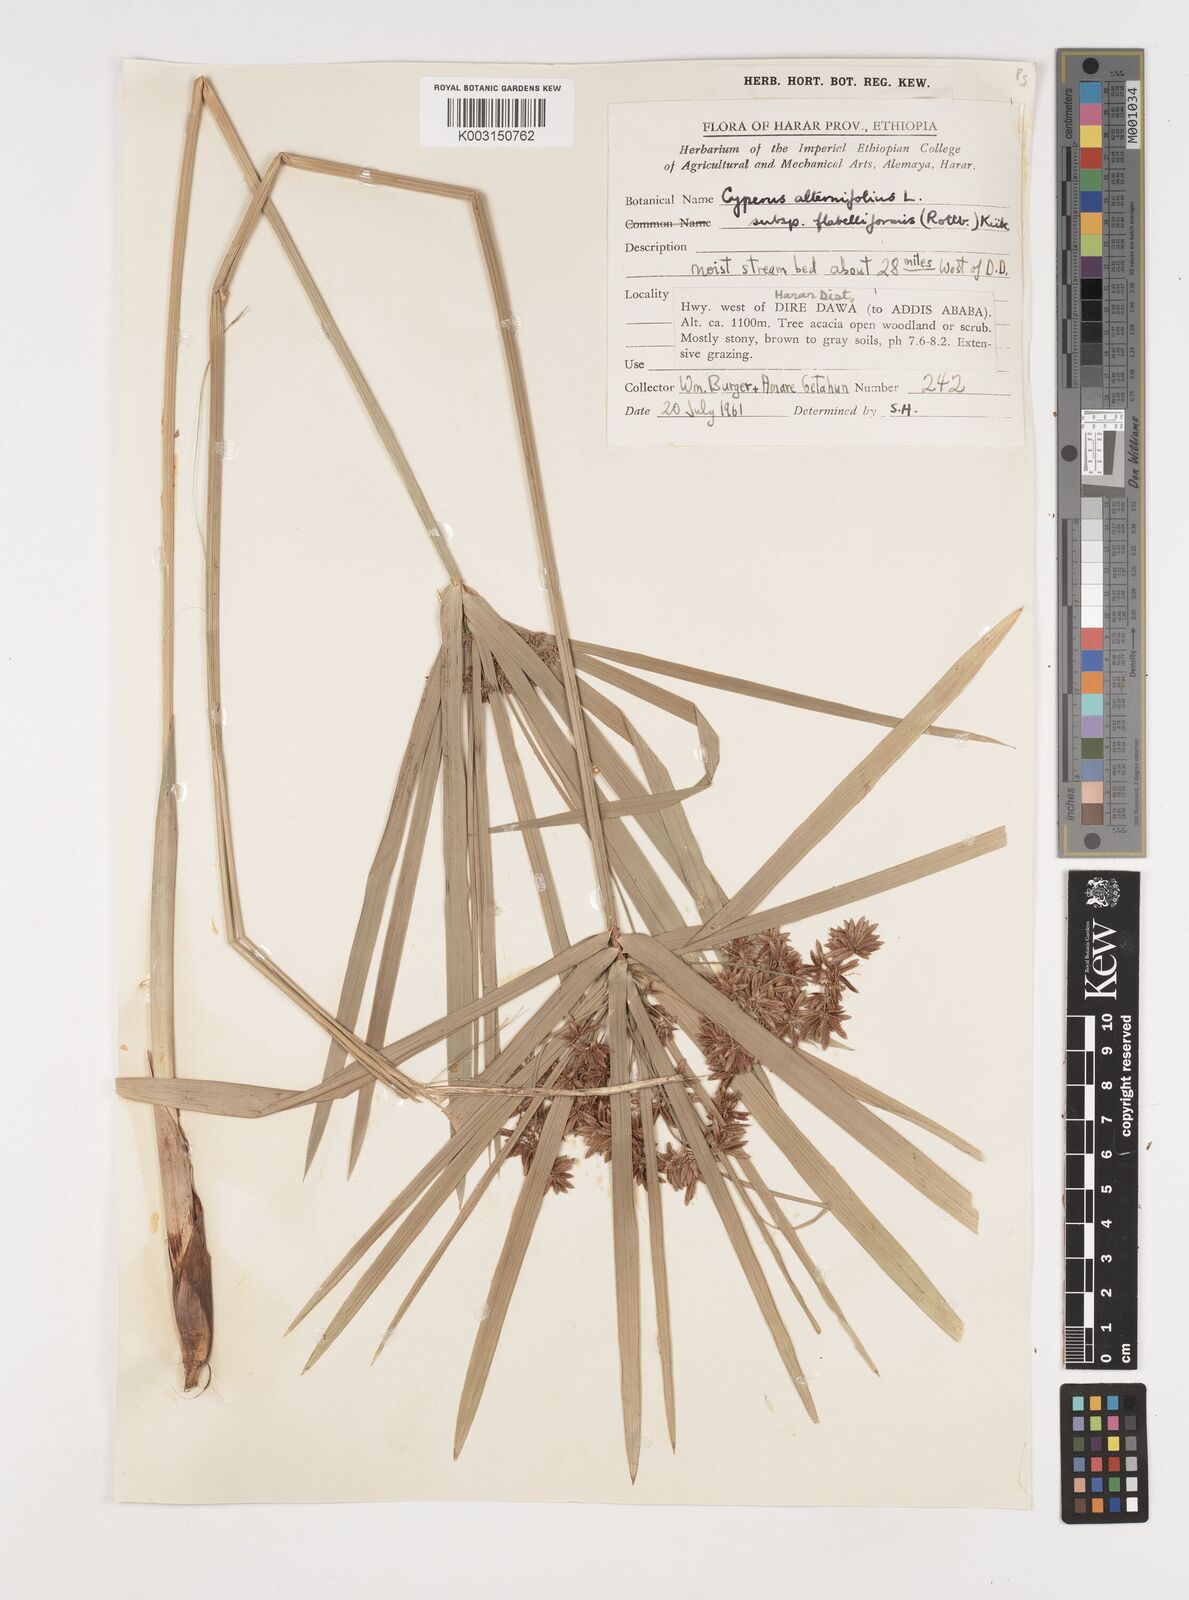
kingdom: Plantae
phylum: Tracheophyta
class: Liliopsida
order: Poales
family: Cyperaceae
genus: Cyperus
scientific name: Cyperus alternifolius
